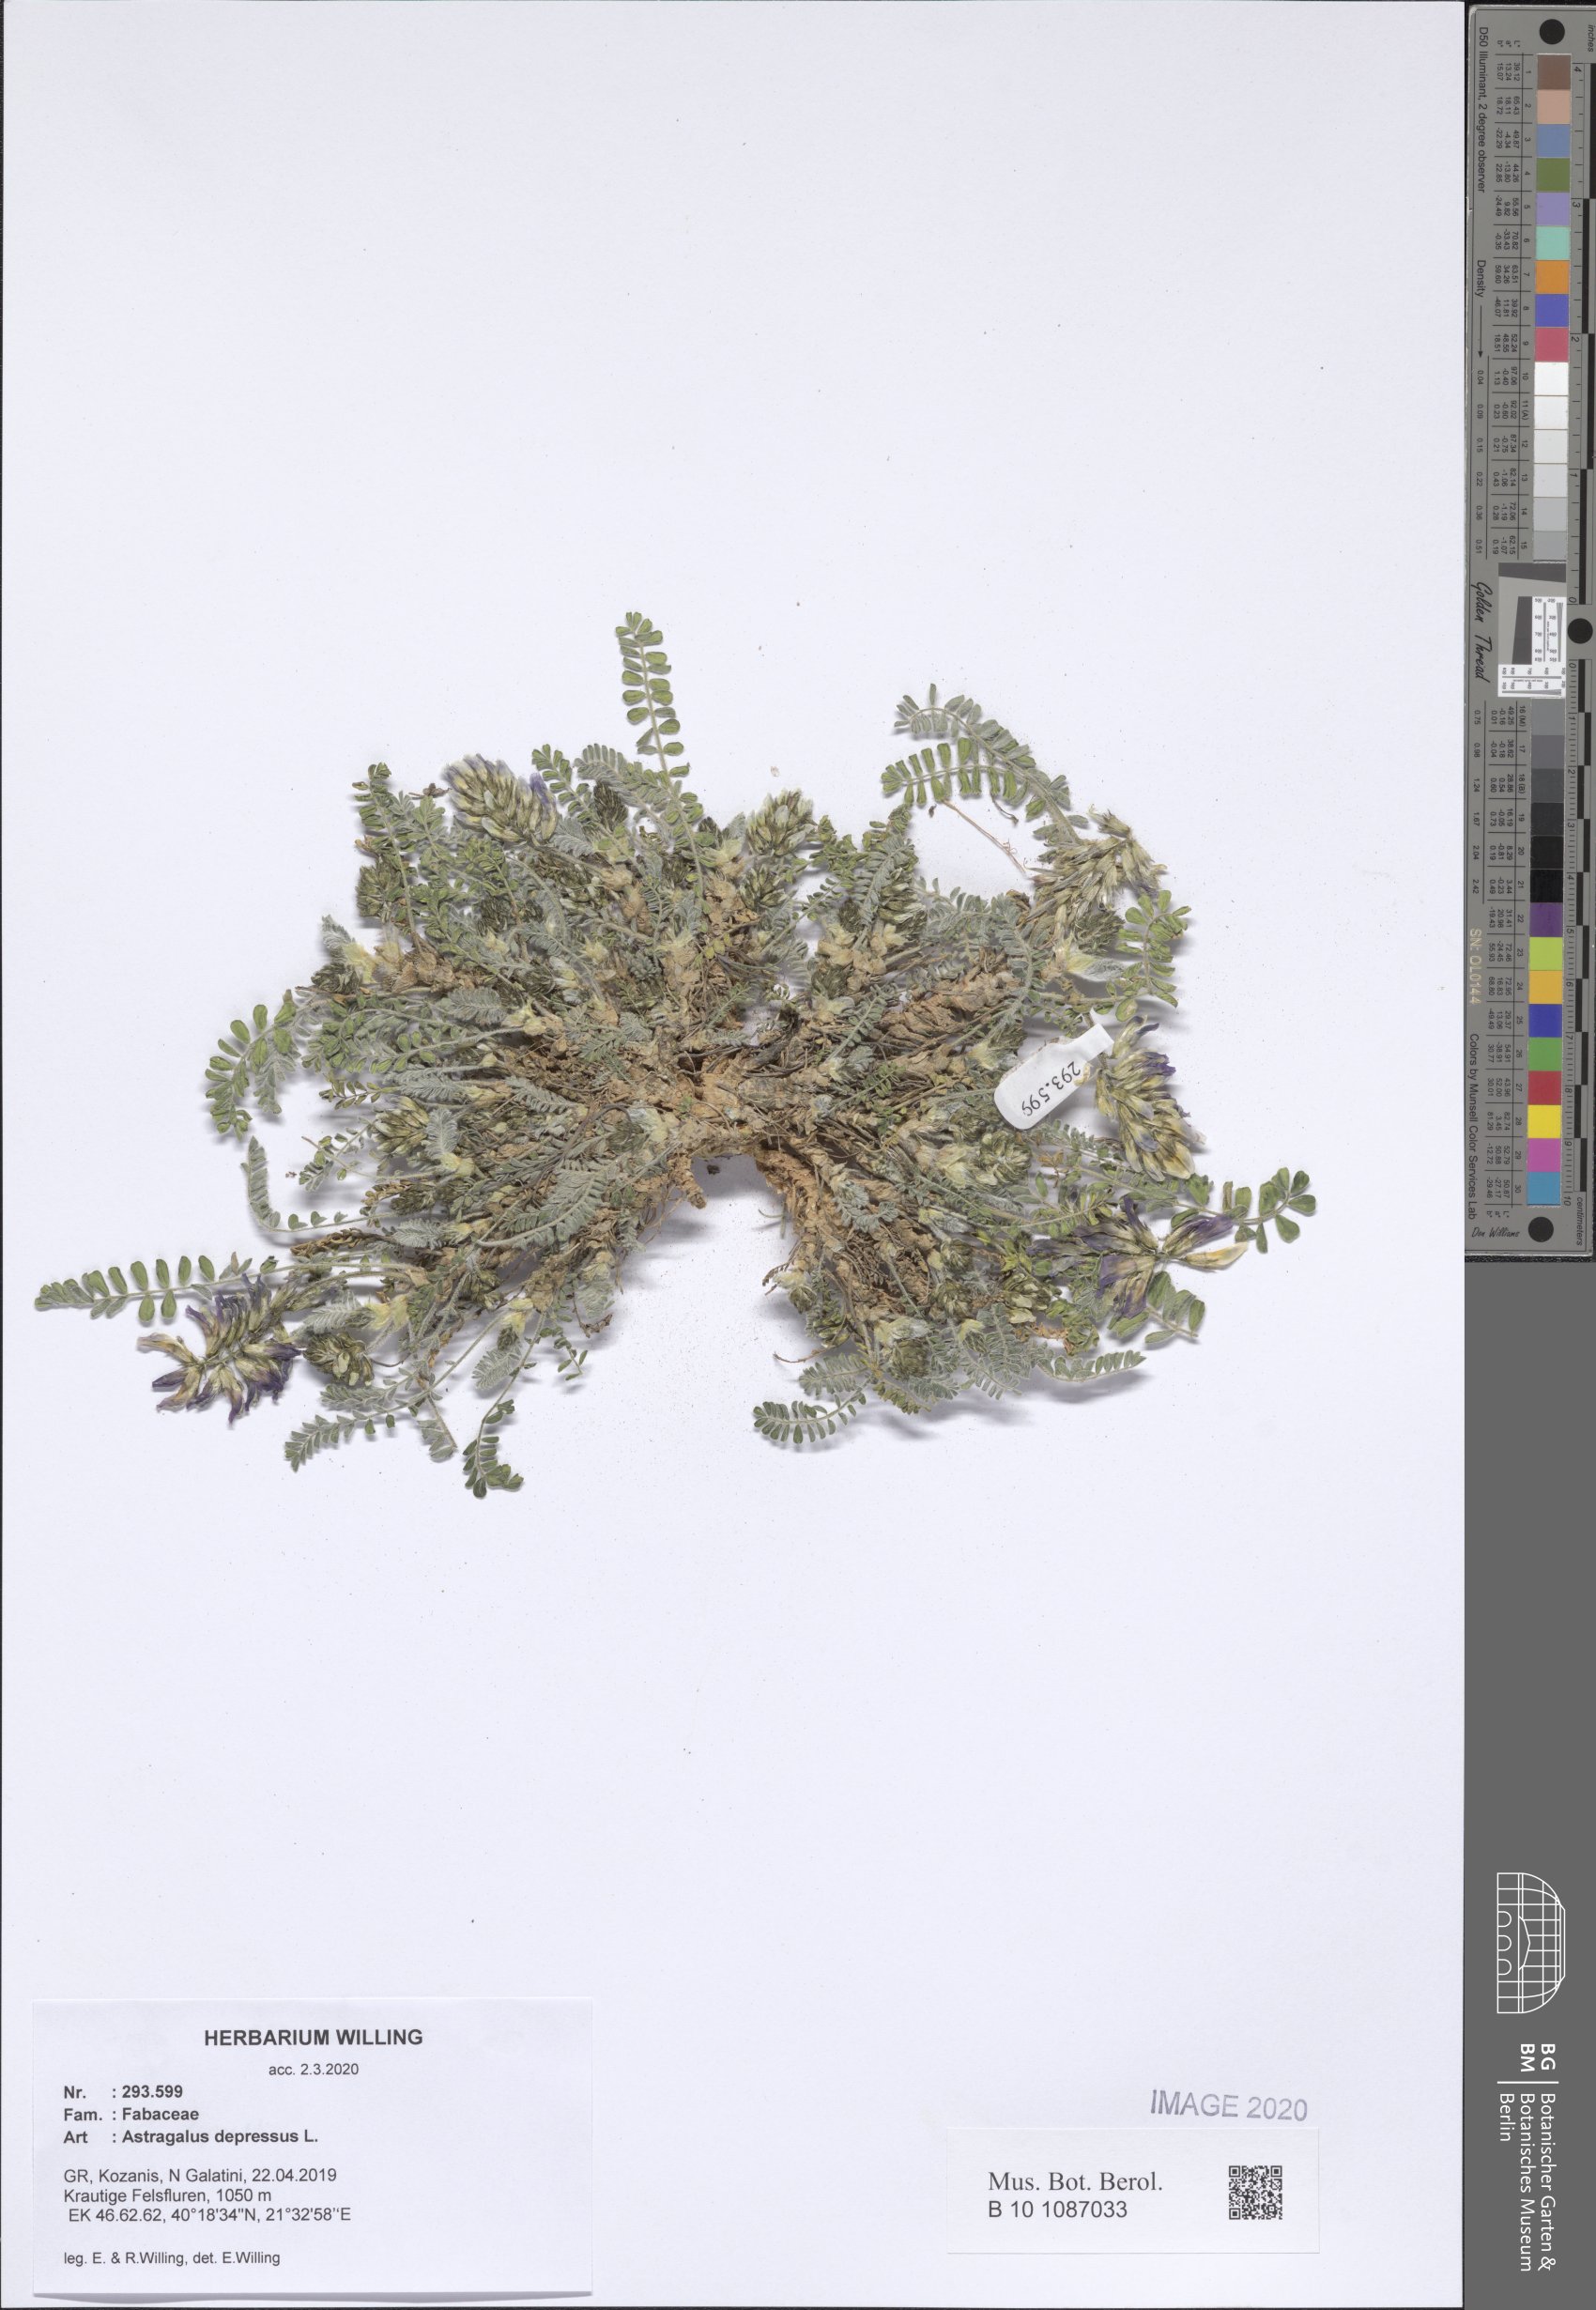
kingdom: Plantae
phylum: Tracheophyta
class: Magnoliopsida
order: Fabales
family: Fabaceae
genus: Astragalus
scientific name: Astragalus depressus
